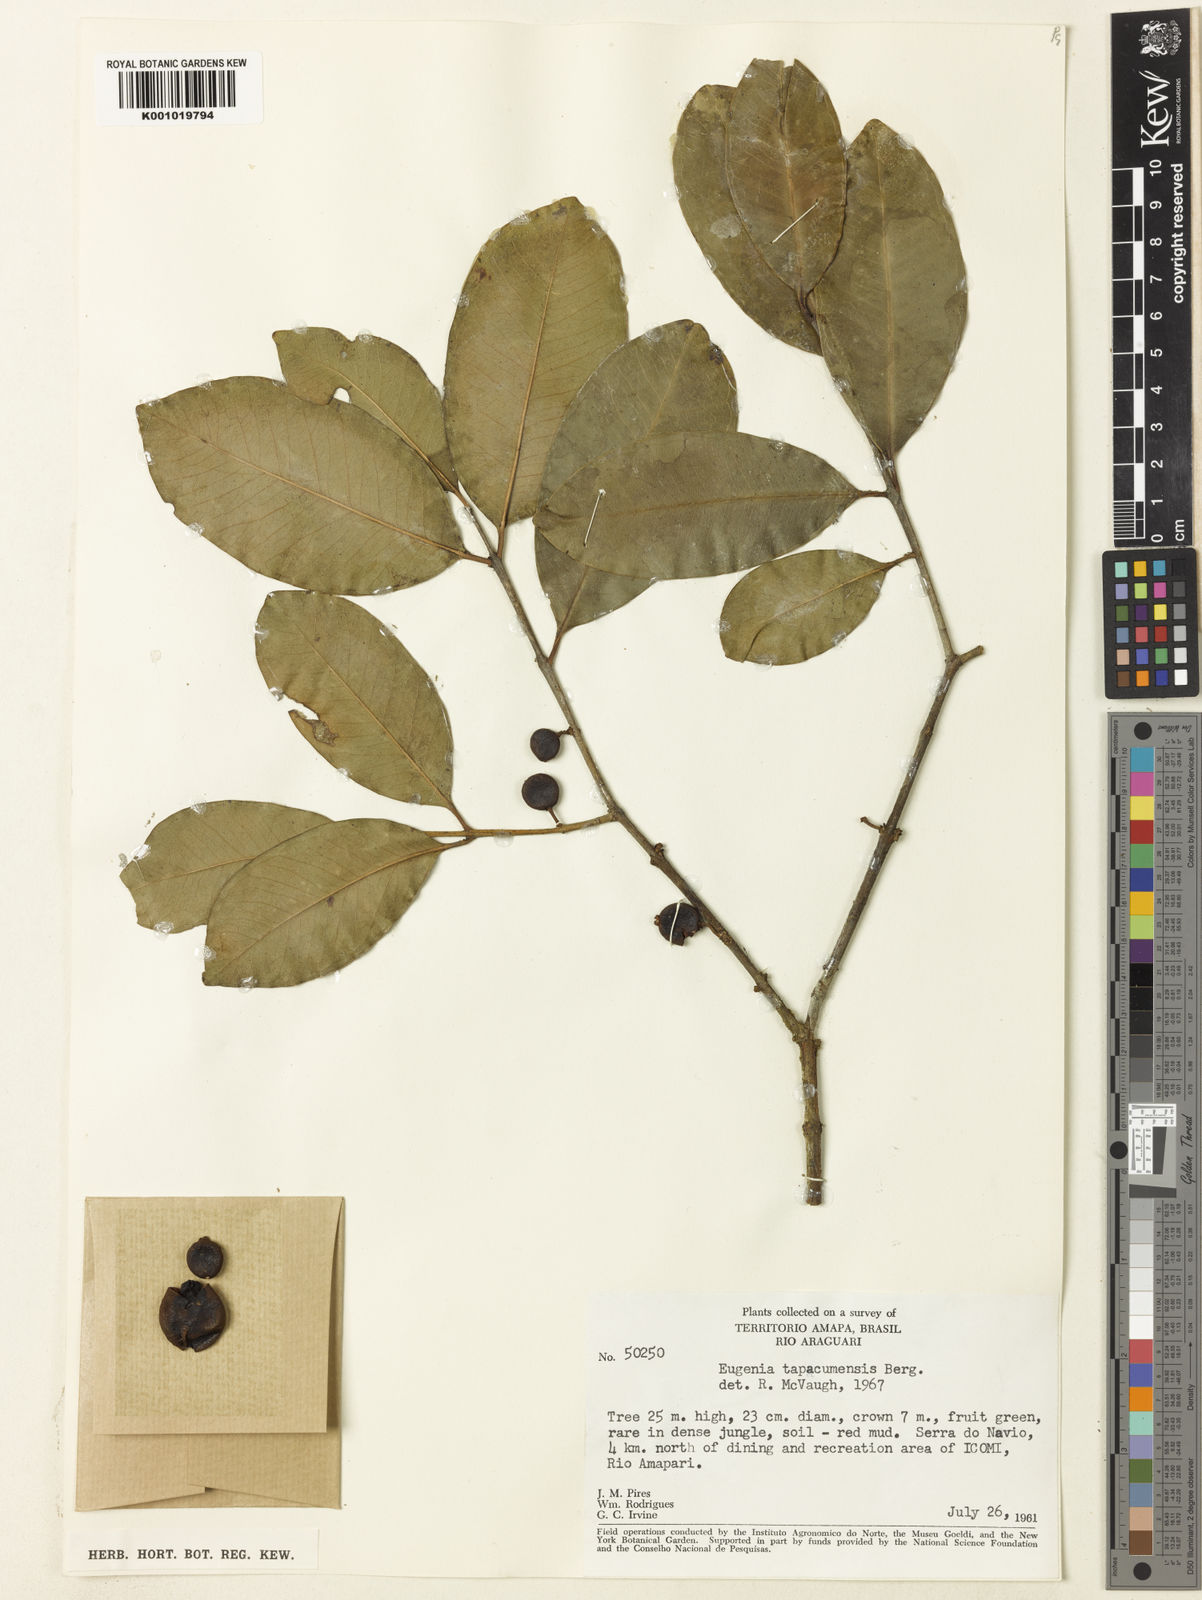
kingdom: Plantae
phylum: Tracheophyta
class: Magnoliopsida
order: Myrtales
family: Myrtaceae
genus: Eugenia
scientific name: Eugenia stictopetala
